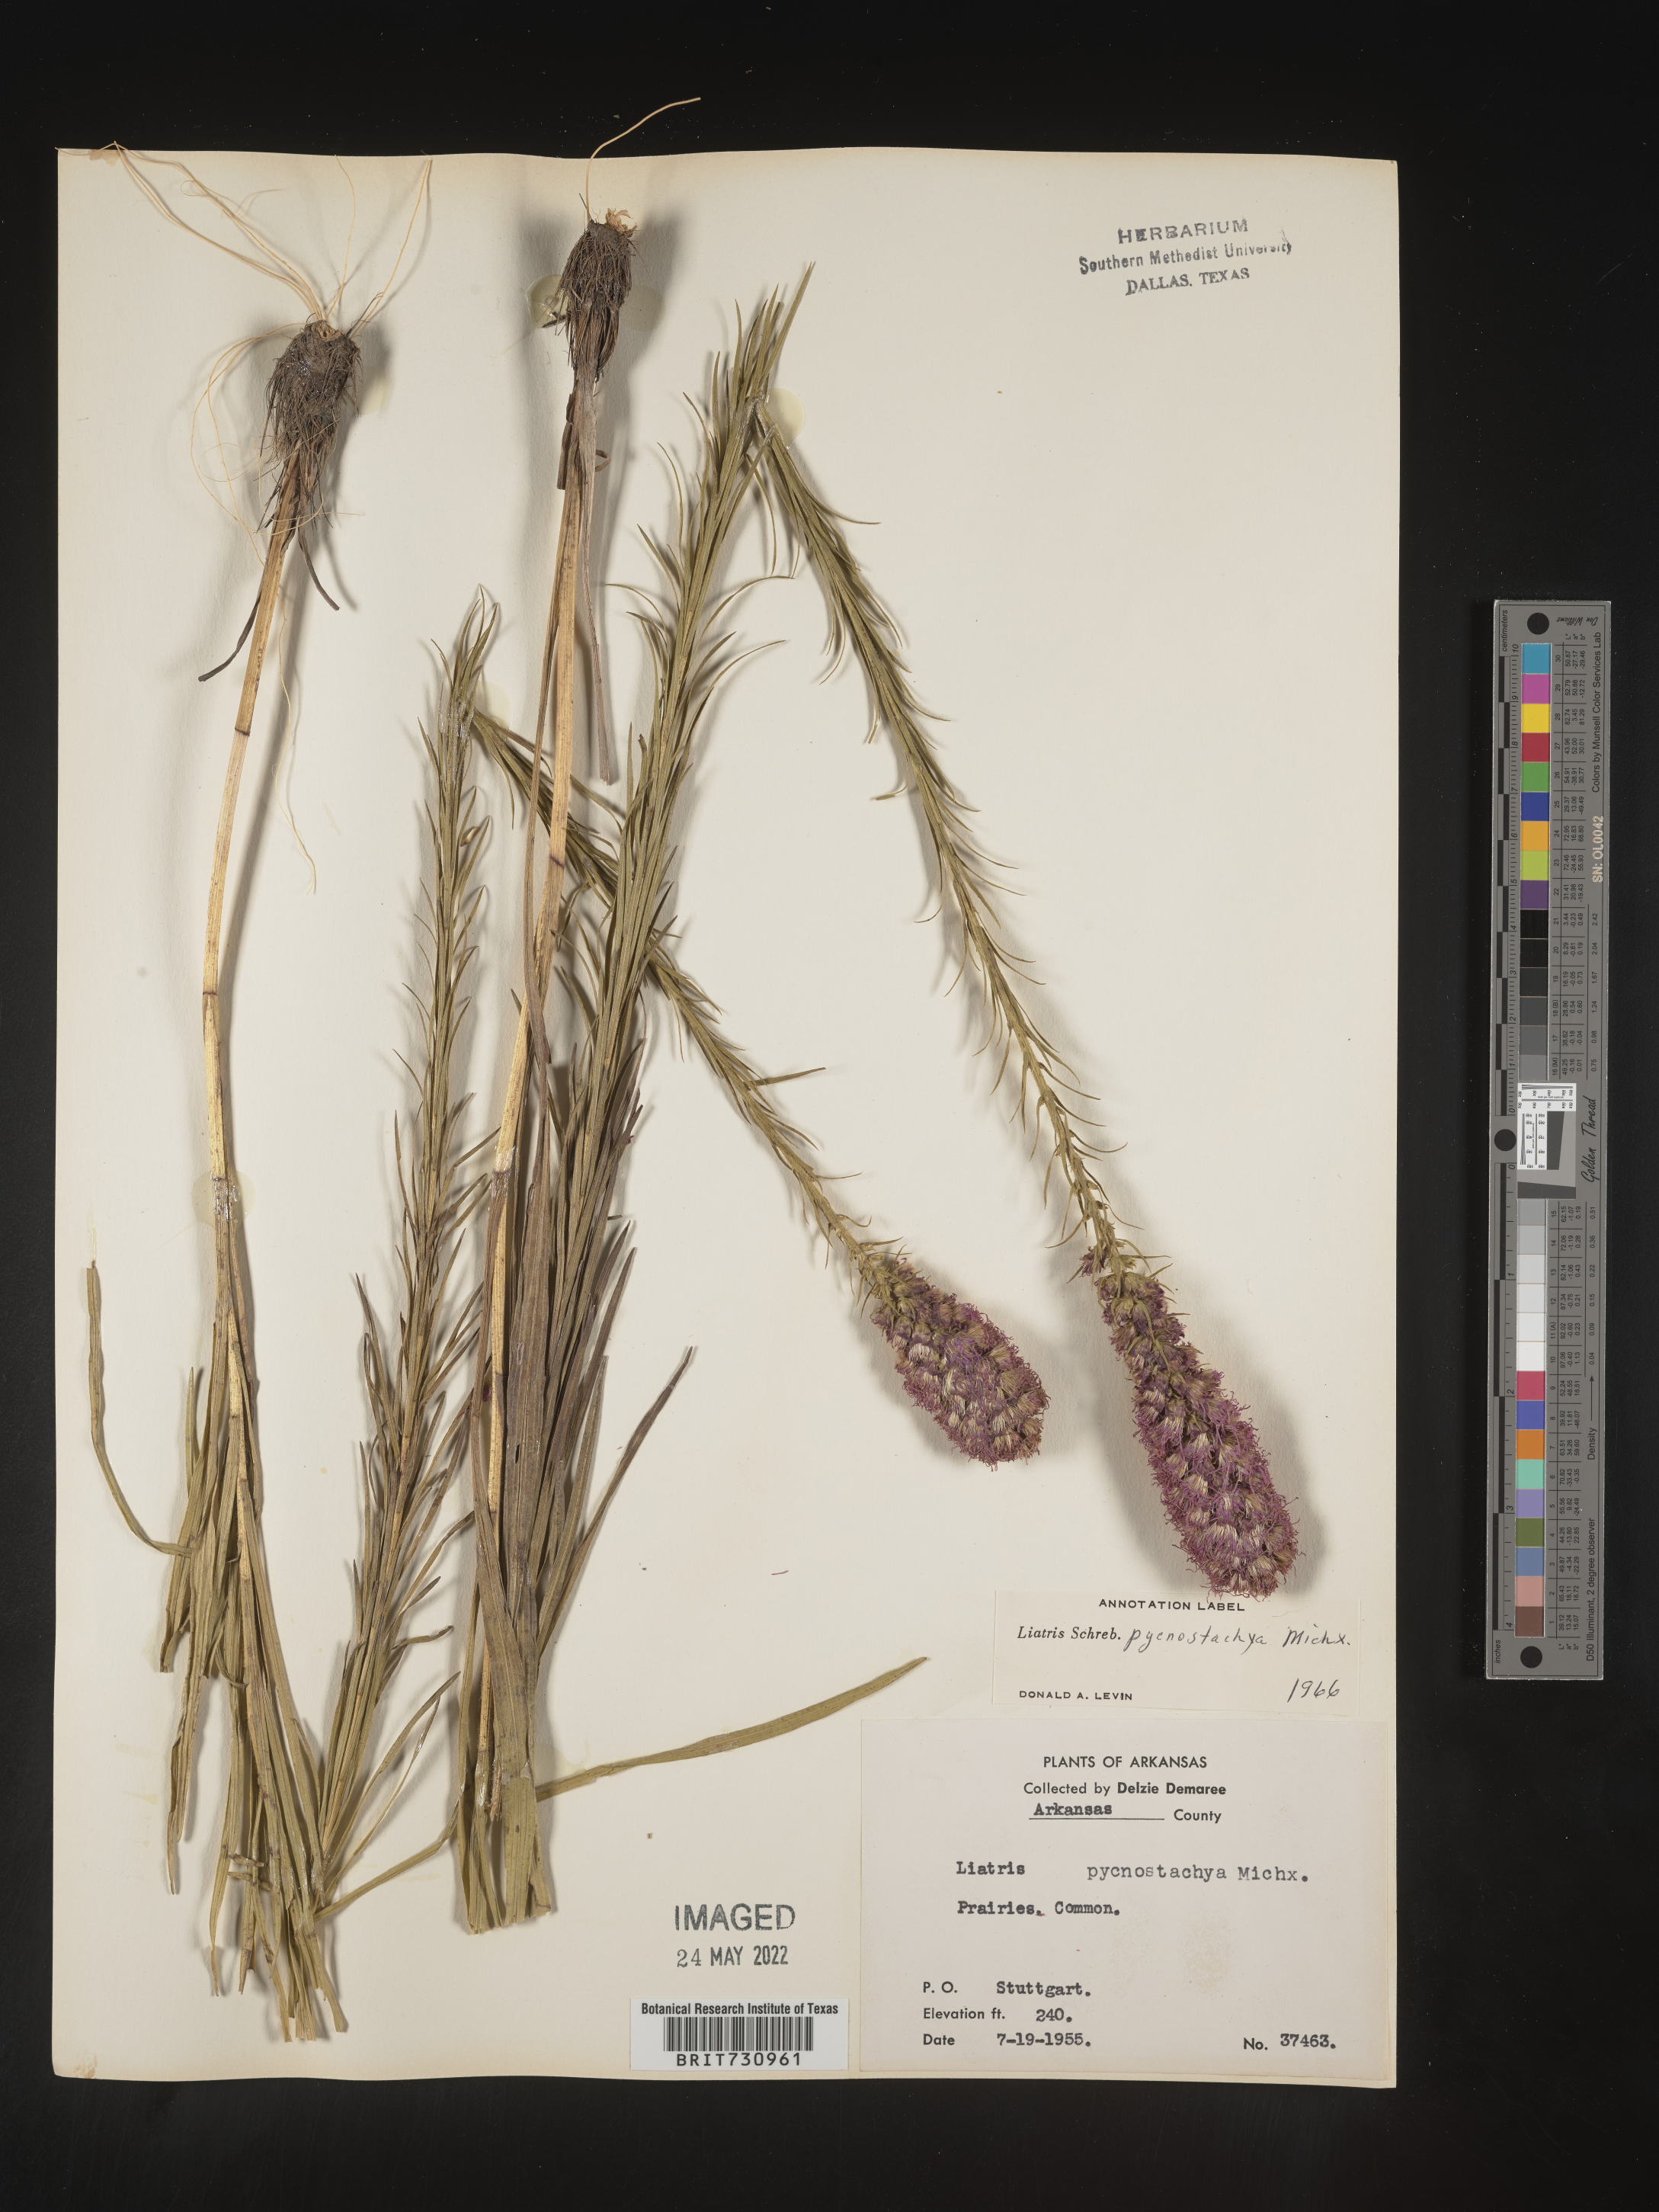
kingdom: Plantae
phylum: Tracheophyta
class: Magnoliopsida
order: Asterales
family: Asteraceae
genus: Liatris
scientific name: Liatris pycnostachya
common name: Cattail gayfeather
